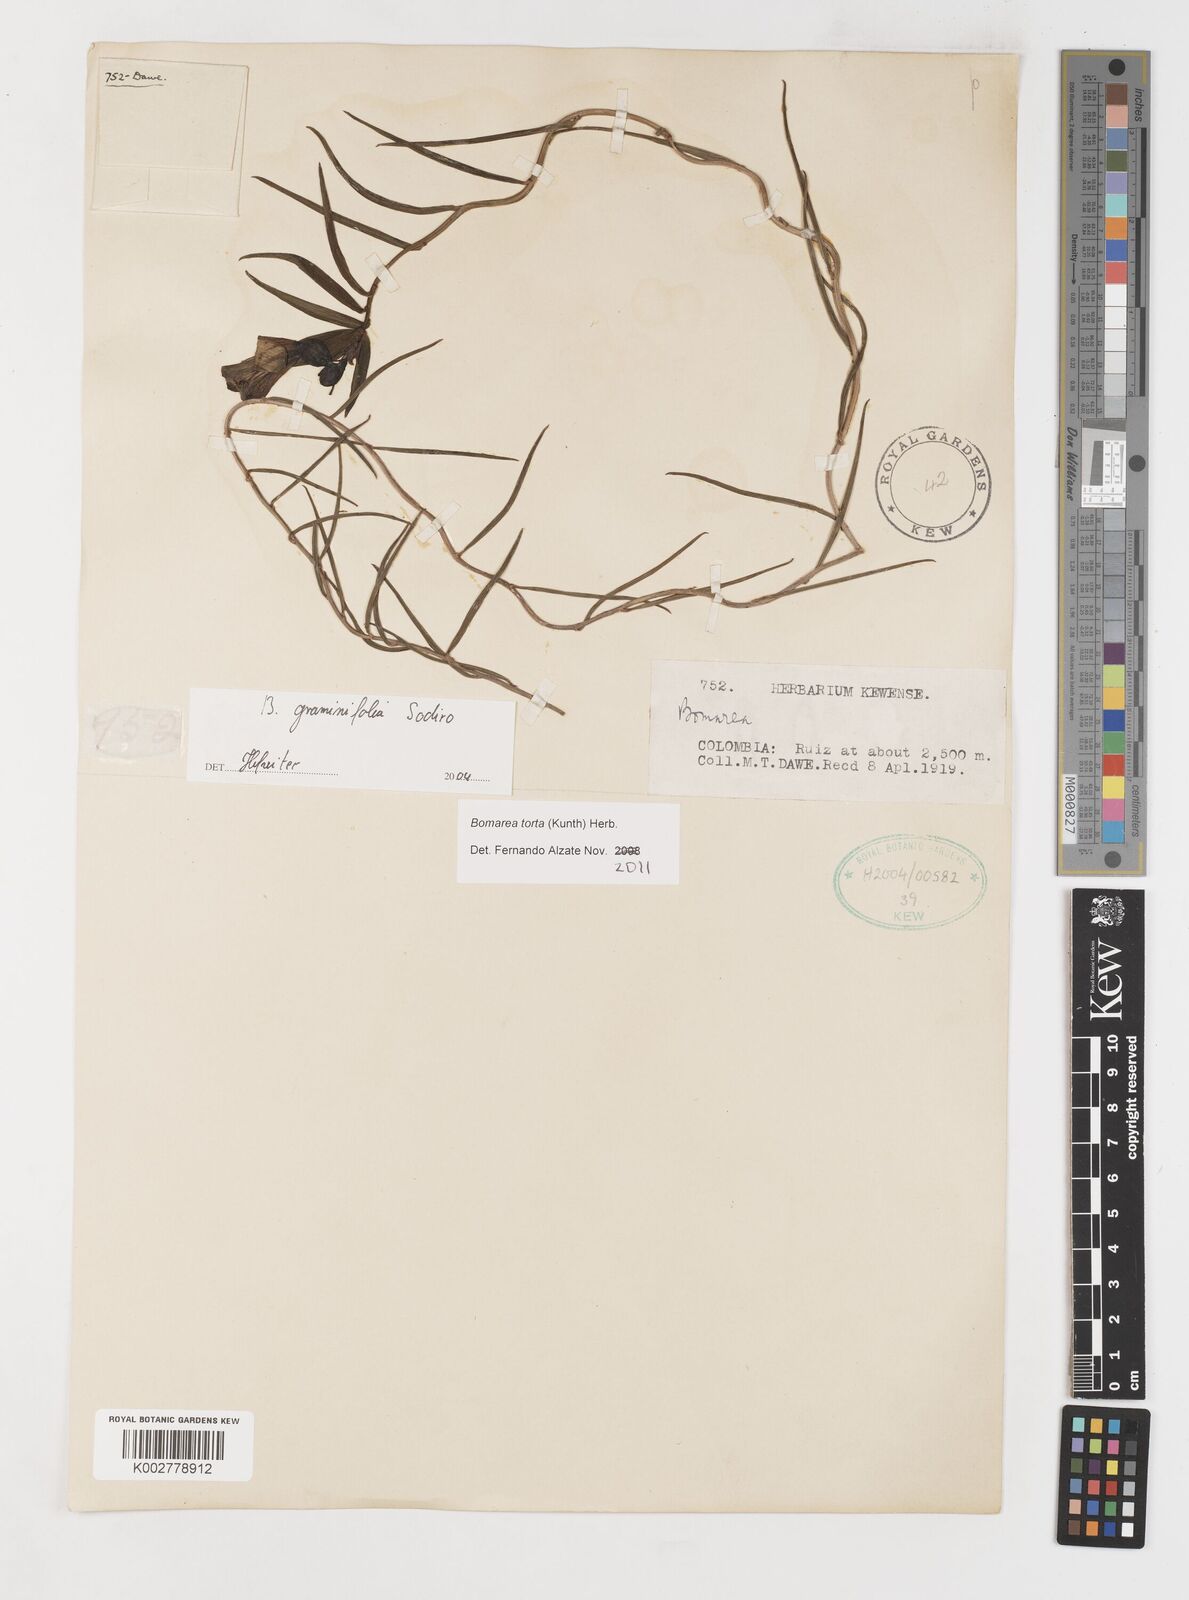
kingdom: Plantae
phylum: Tracheophyta
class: Liliopsida
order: Liliales
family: Alstroemeriaceae
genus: Bomarea
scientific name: Bomarea graminifolia
